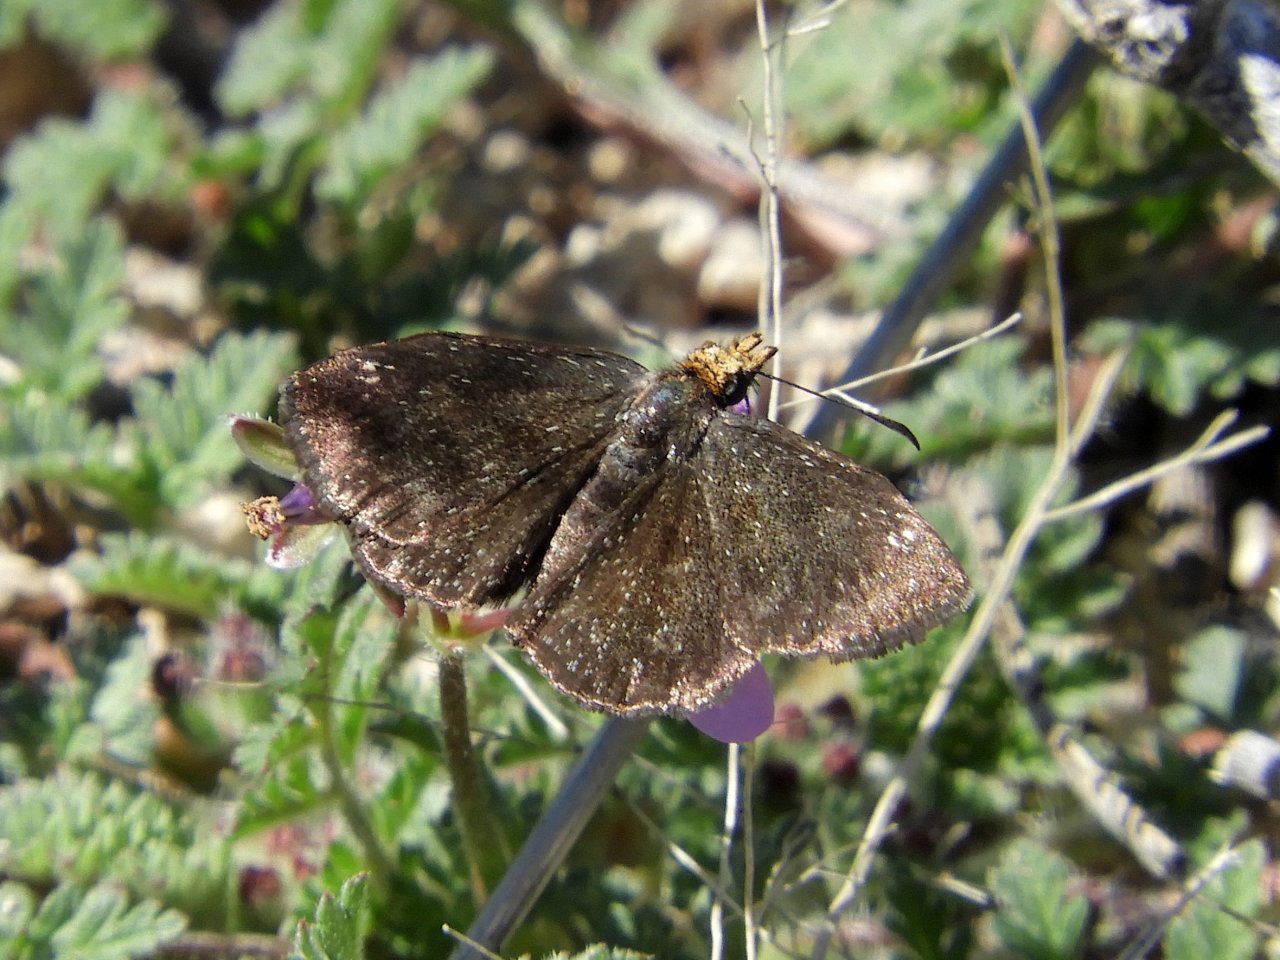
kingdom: Animalia
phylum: Arthropoda
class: Insecta
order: Lepidoptera
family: Hesperiidae
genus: Staphylus
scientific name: Staphylus ceos
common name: Golden-headed Scallopwing
